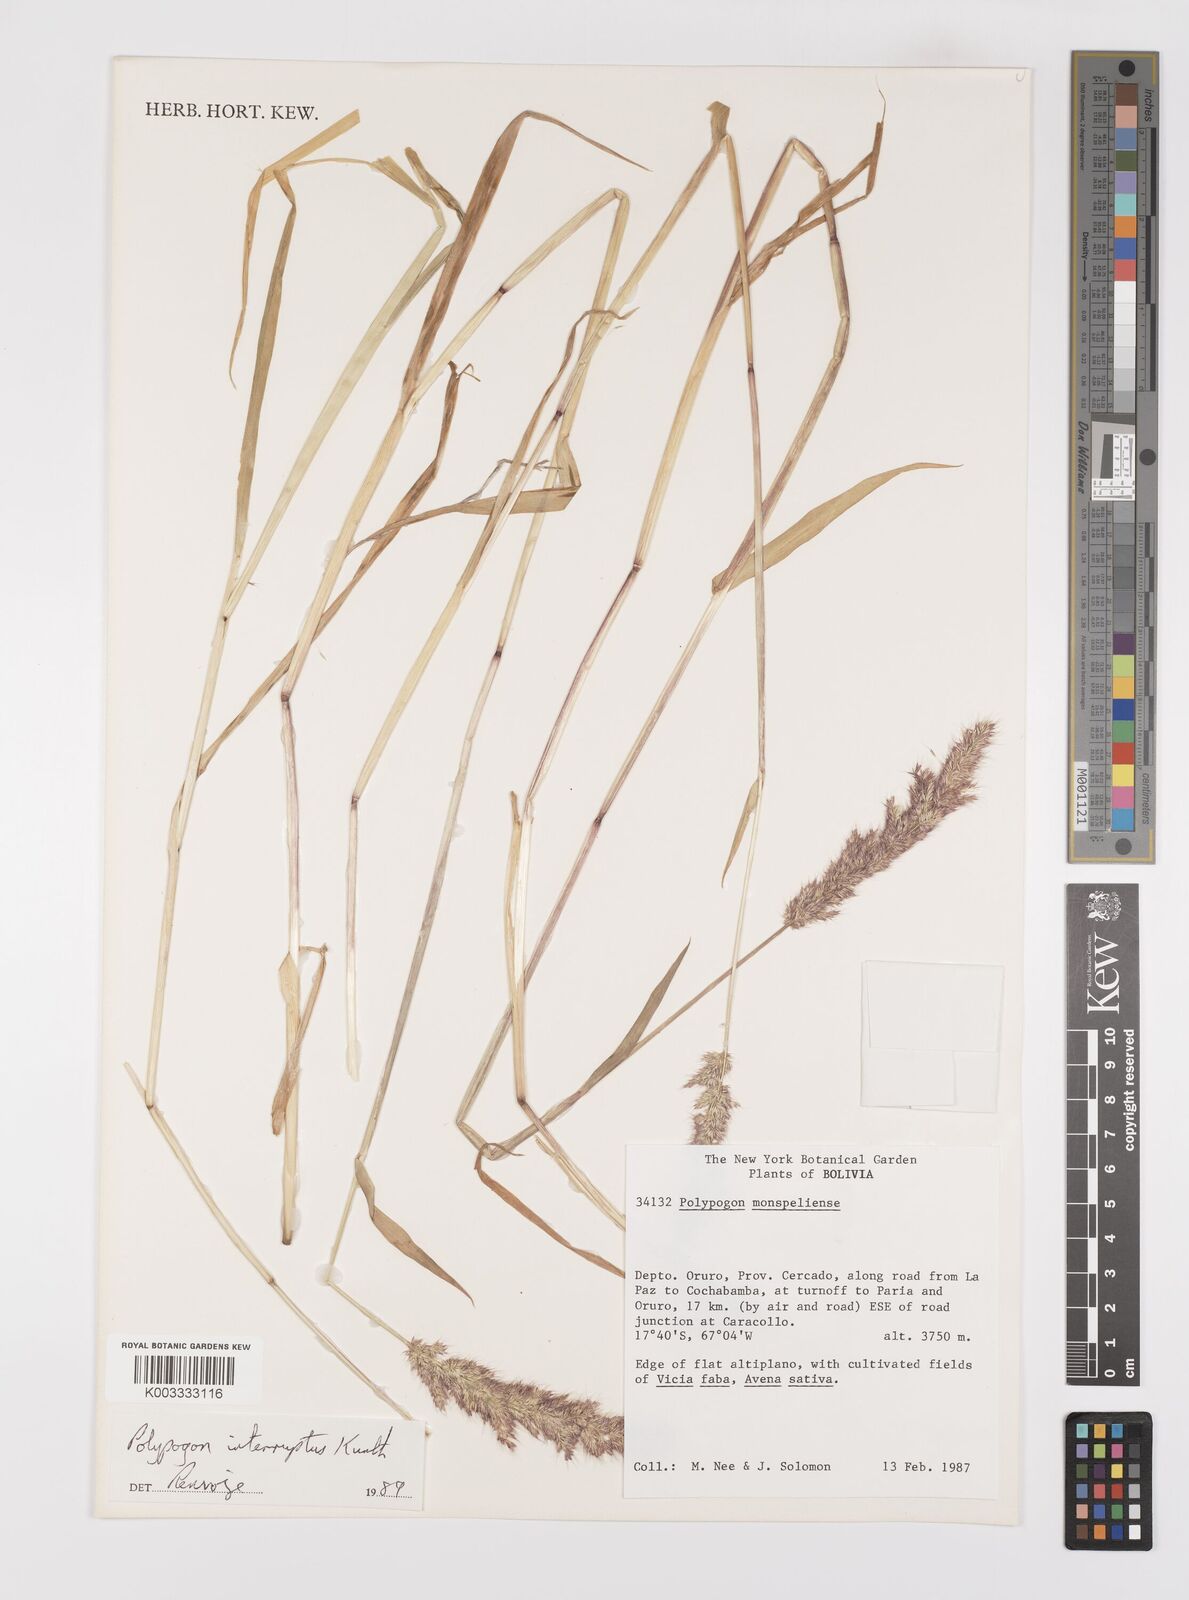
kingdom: Plantae
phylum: Tracheophyta
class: Liliopsida
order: Poales
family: Poaceae
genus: Polypogon
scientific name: Polypogon interruptus
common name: Ditch polypogon
